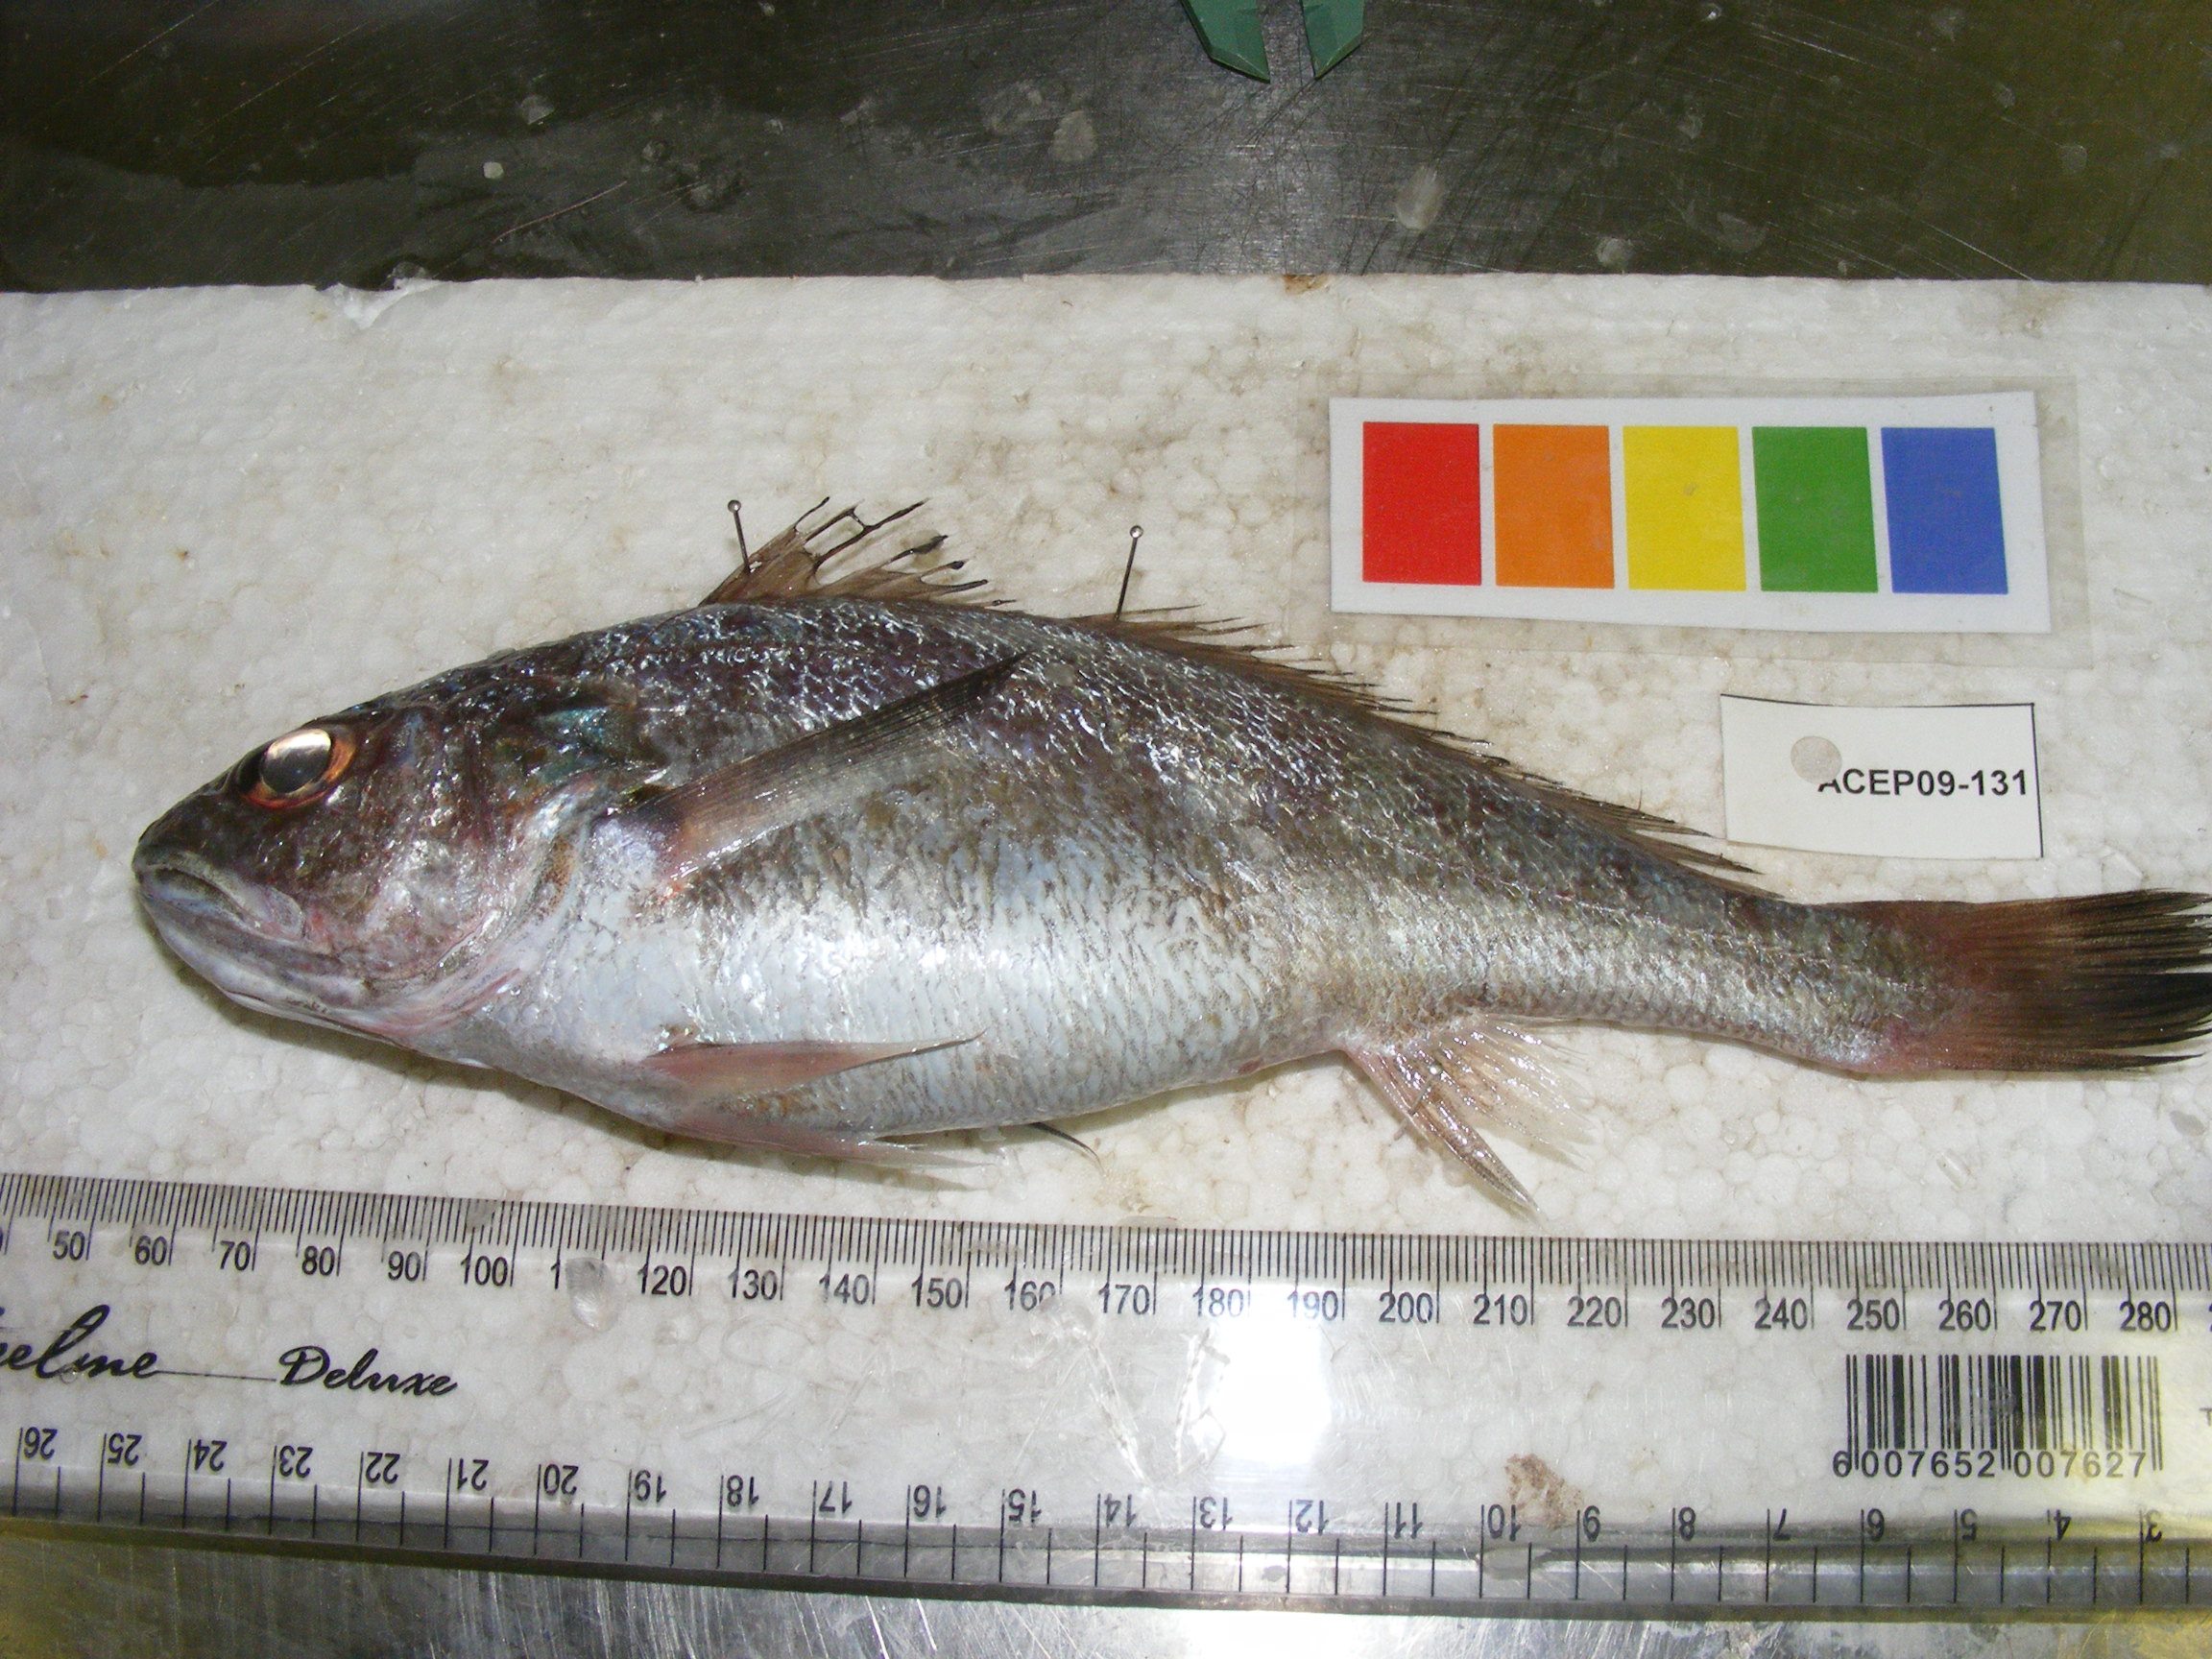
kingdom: Animalia
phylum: Chordata
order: Perciformes
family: Sciaenidae
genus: Johnius
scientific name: Johnius dussumieri
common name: Sin croaker
